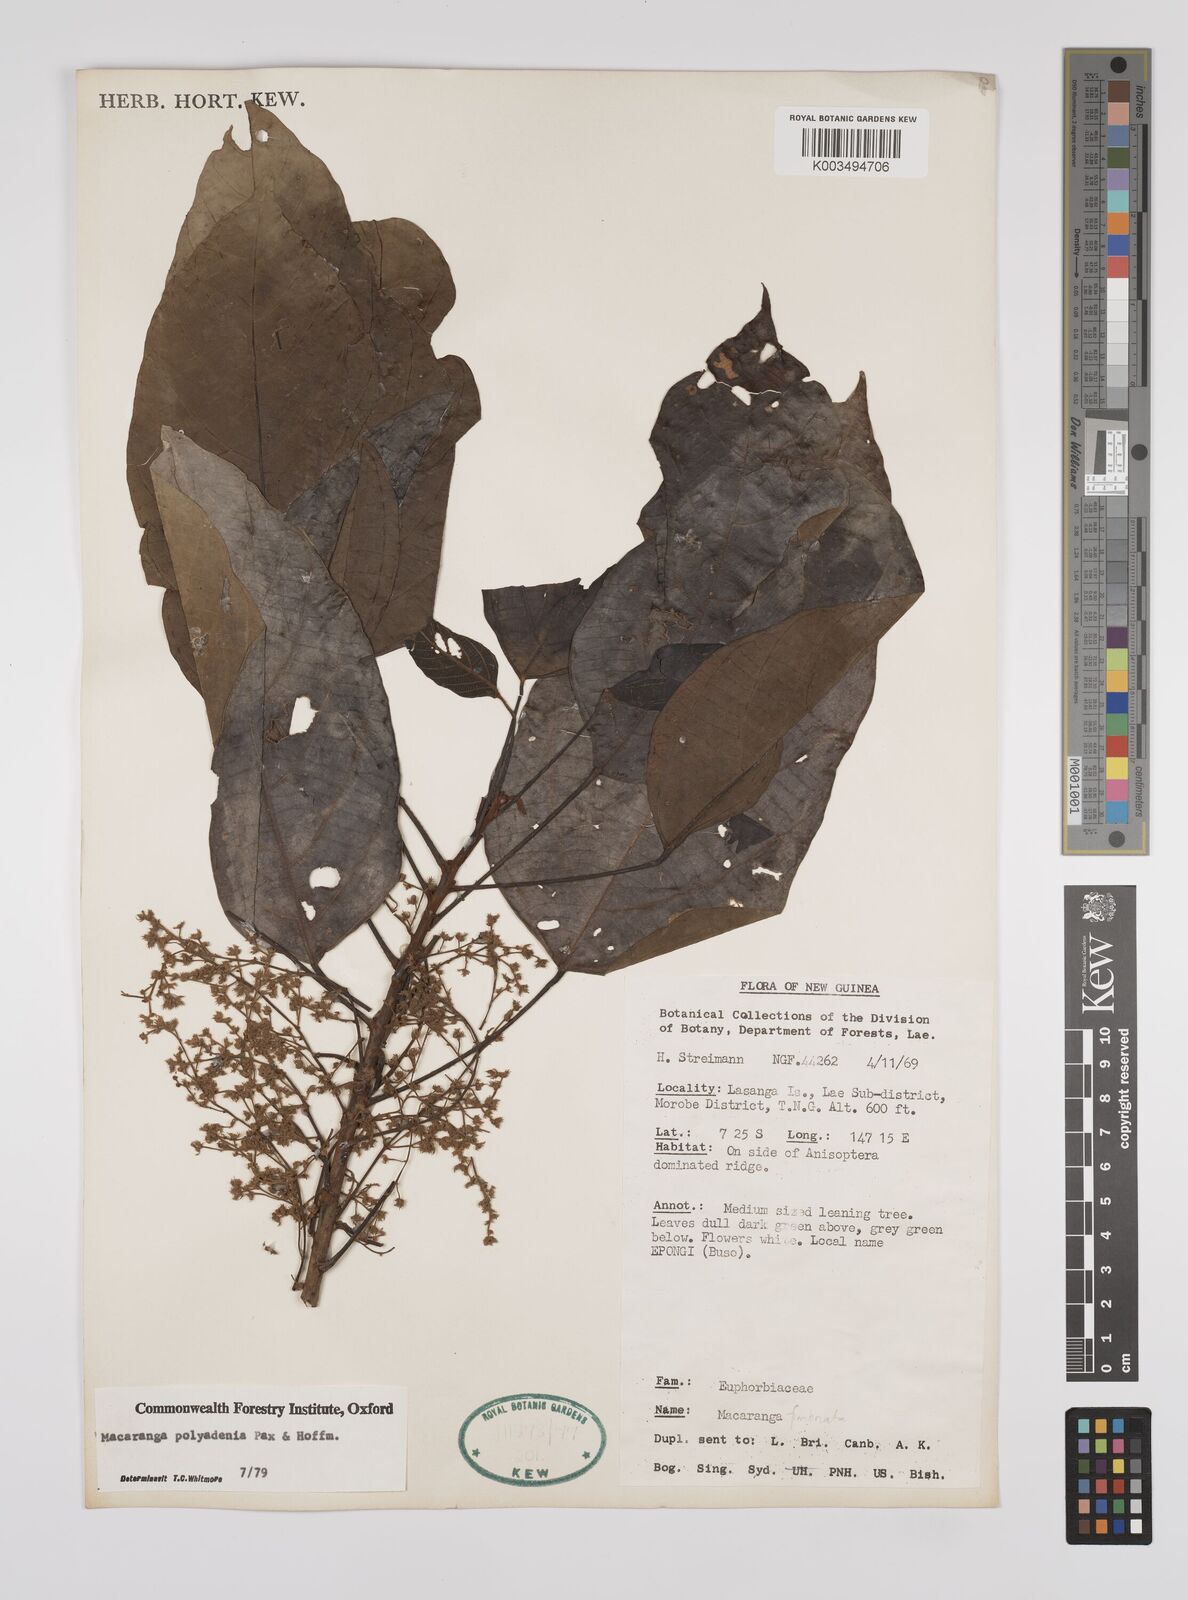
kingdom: Plantae
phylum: Tracheophyta
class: Magnoliopsida
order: Malpighiales
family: Euphorbiaceae
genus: Macaranga
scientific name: Macaranga polyadenia
